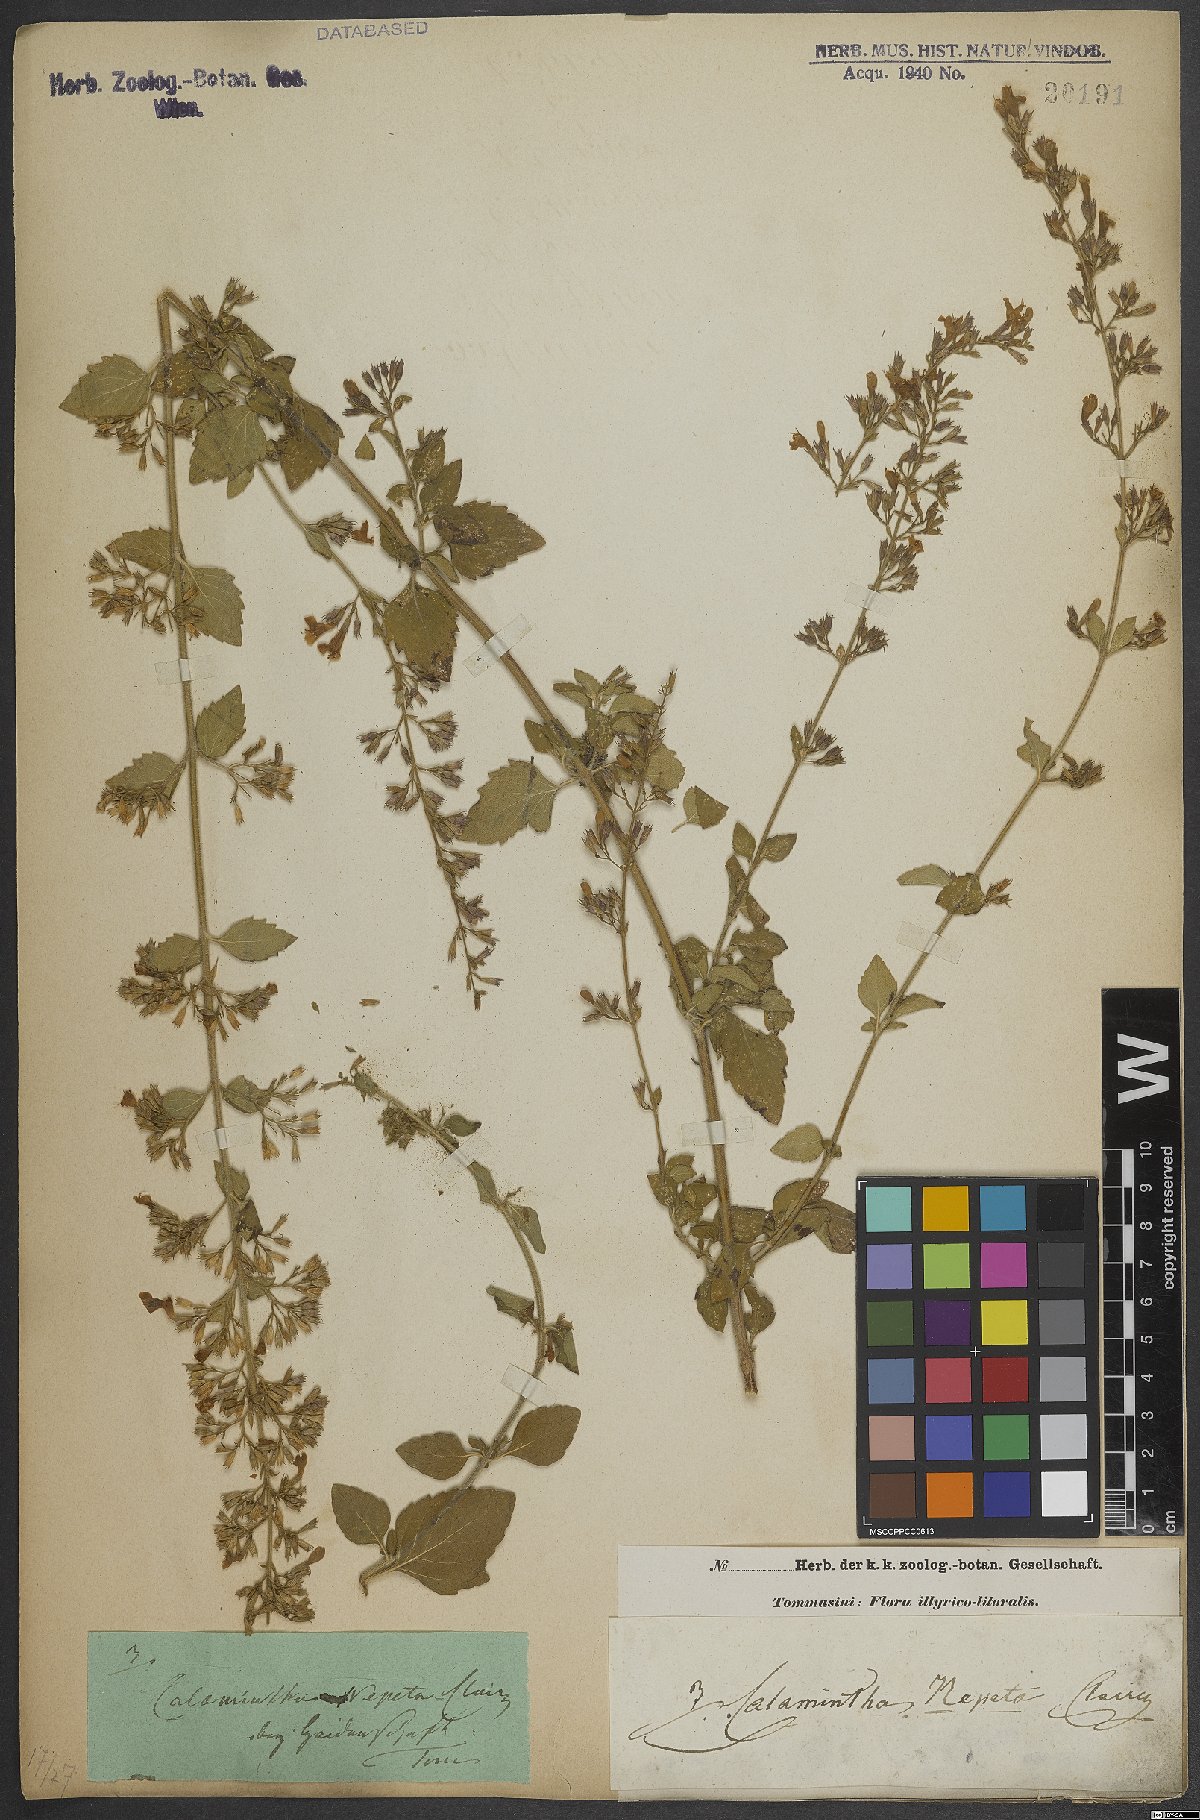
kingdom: Plantae
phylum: Tracheophyta
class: Magnoliopsida
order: Lamiales
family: Lamiaceae
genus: Clinopodium
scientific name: Clinopodium nepeta
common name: Lesser calamint
